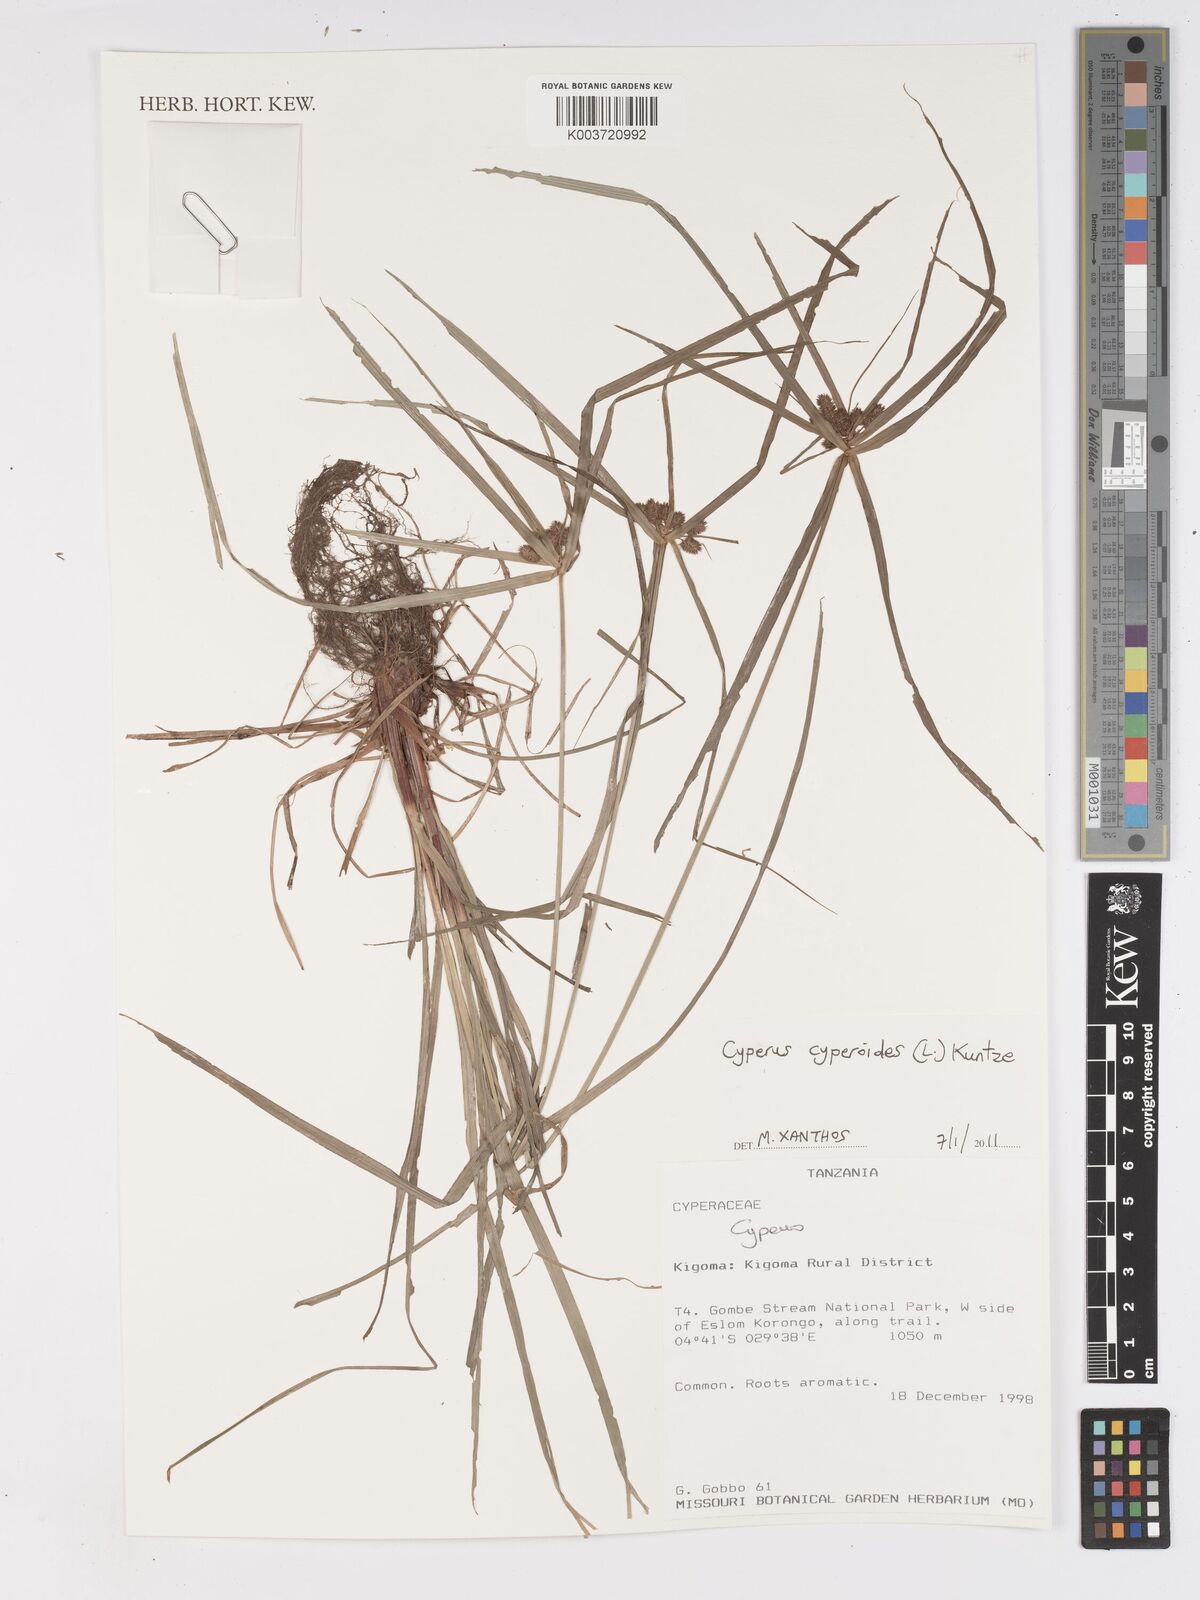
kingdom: Plantae
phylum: Tracheophyta
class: Liliopsida
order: Poales
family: Cyperaceae
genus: Cyperus
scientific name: Cyperus
